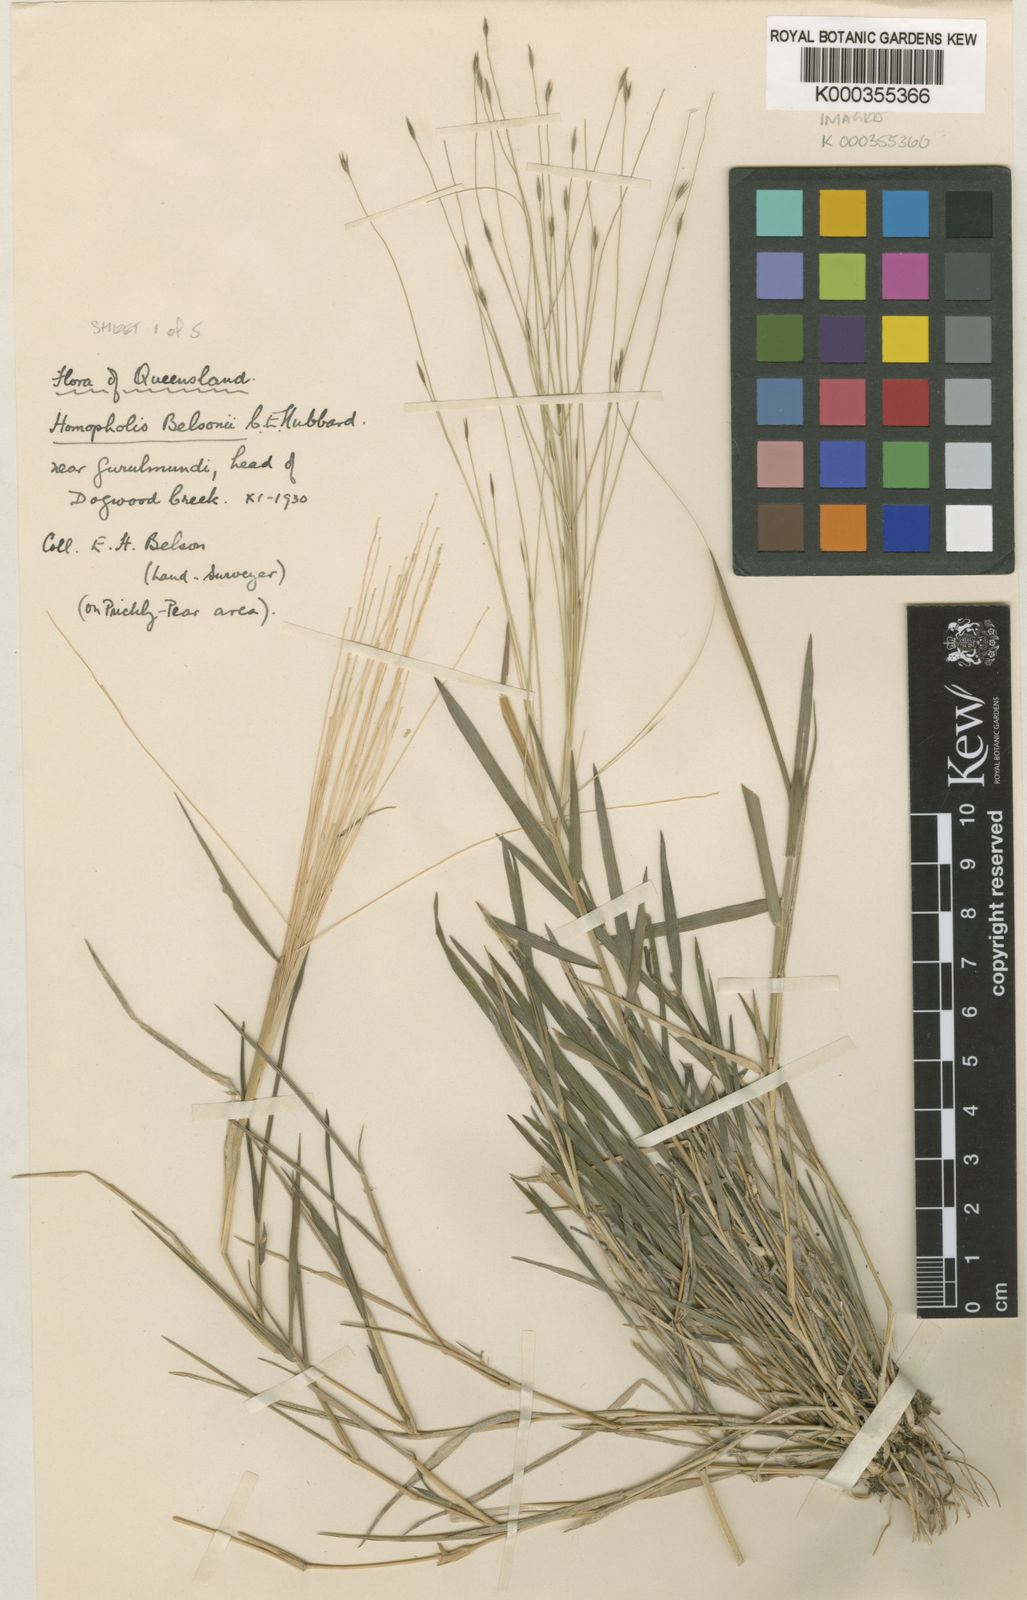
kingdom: Plantae
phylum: Tracheophyta
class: Liliopsida
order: Poales
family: Poaceae
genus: Homopholis
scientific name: Homopholis belsonii
